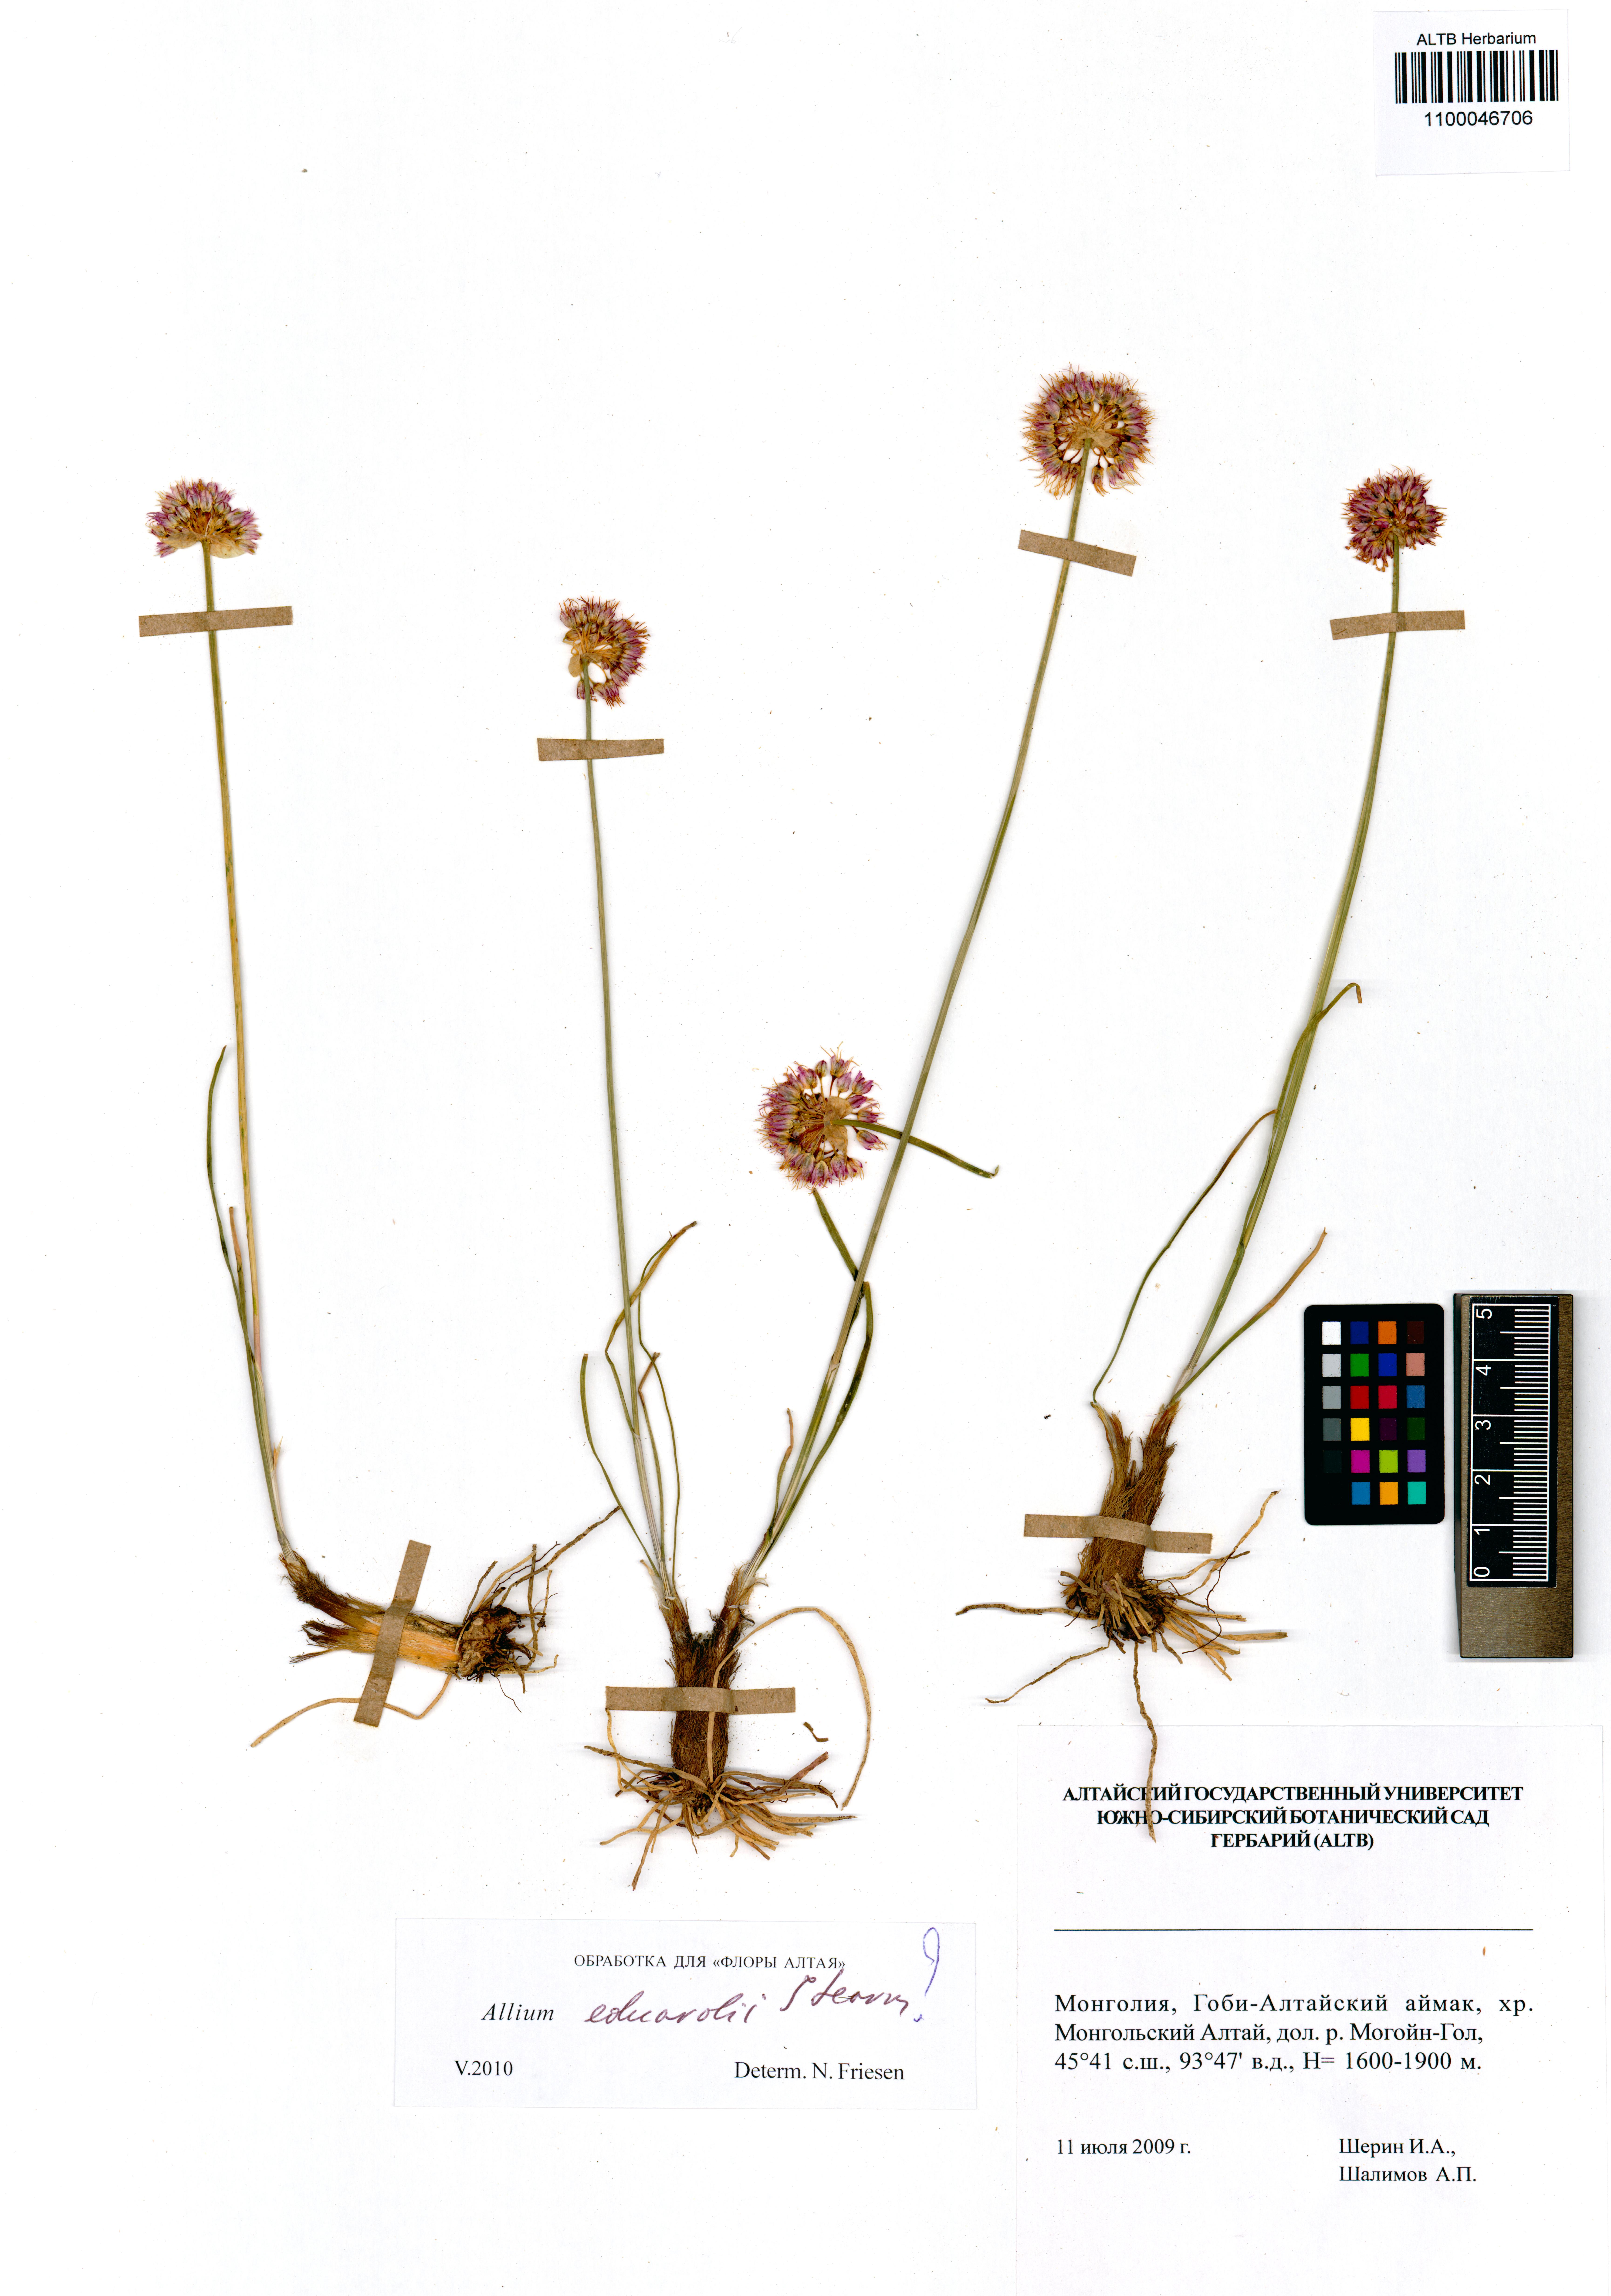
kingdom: Plantae
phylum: Tracheophyta
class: Liliopsida
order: Asparagales
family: Amaryllidaceae
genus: Allium
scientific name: Allium eduardi
